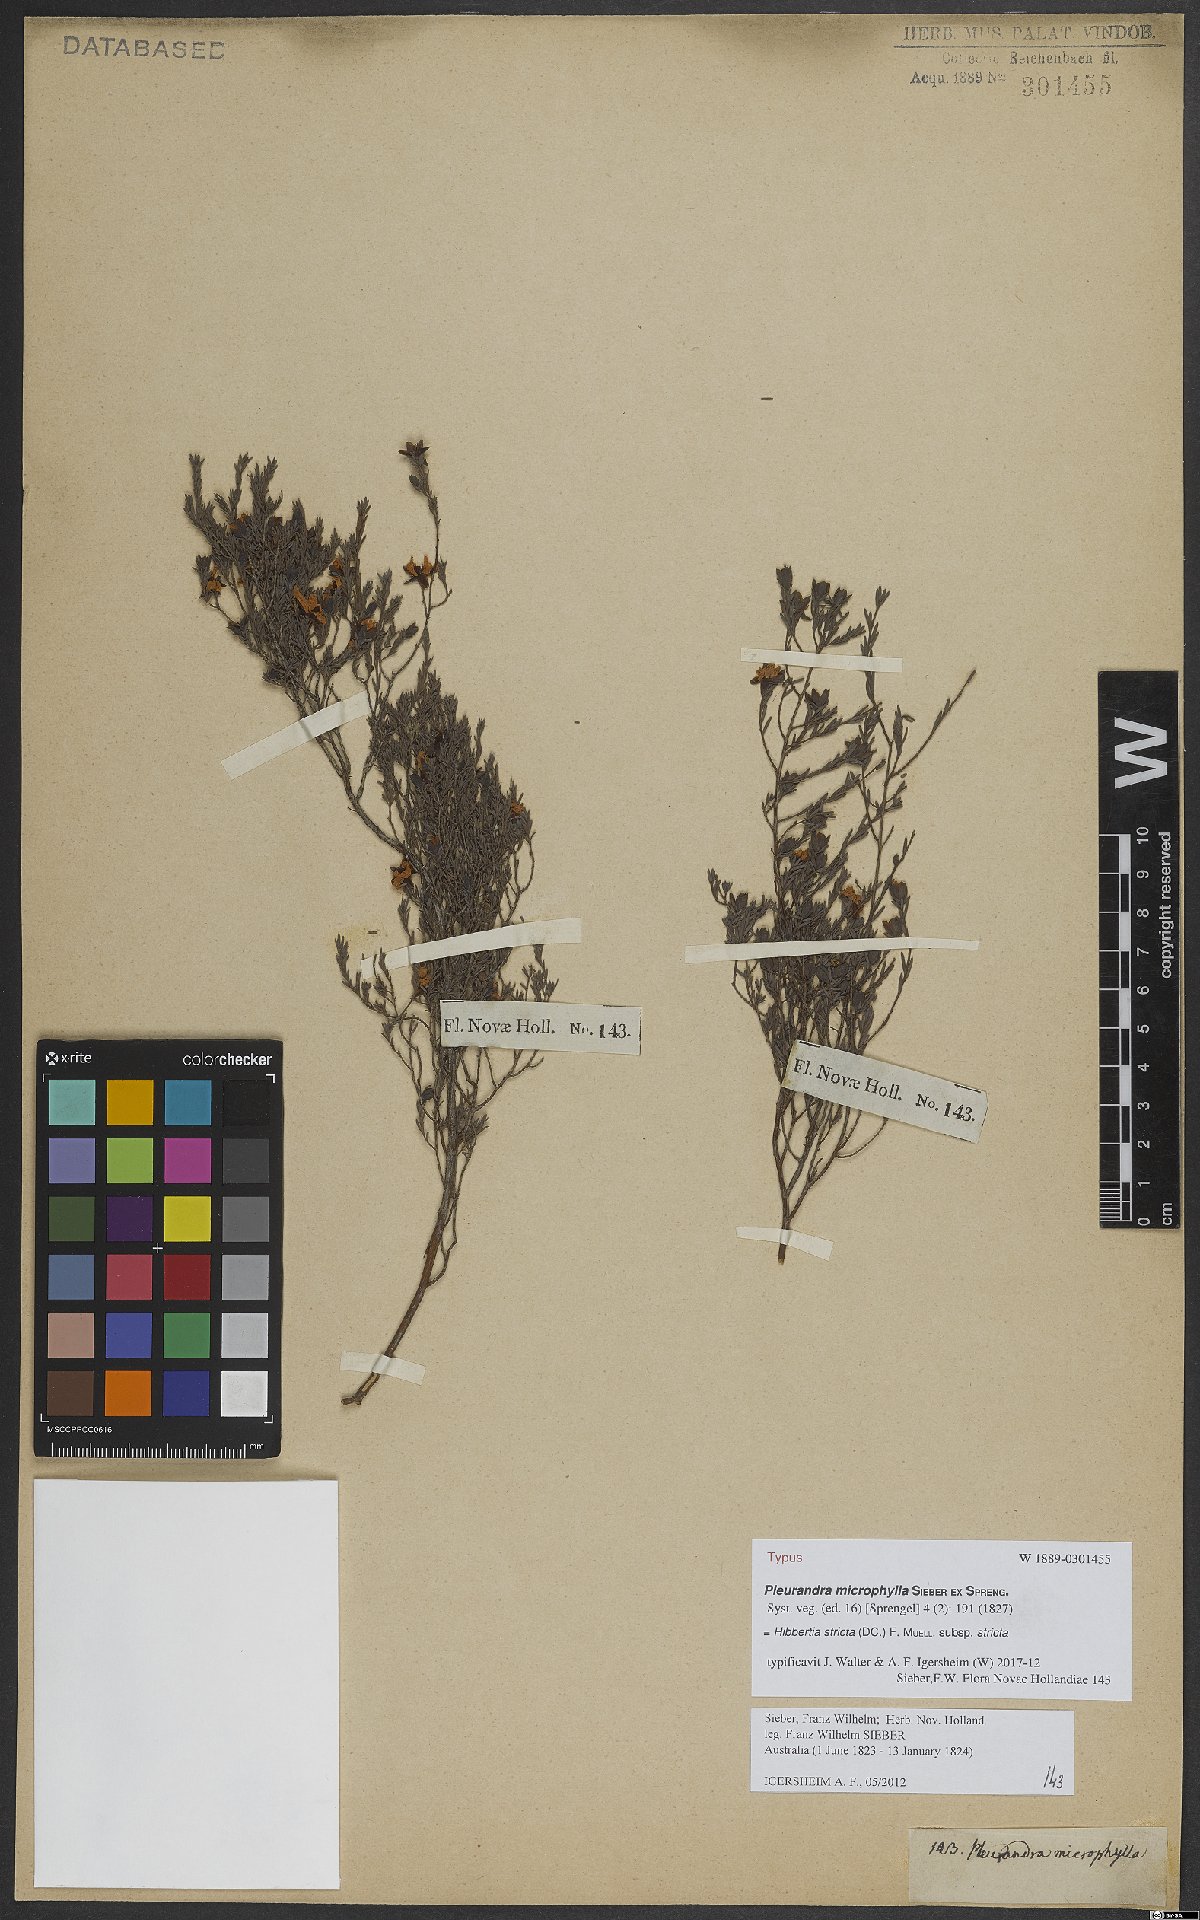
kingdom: Plantae
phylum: Tracheophyta
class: Magnoliopsida
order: Dilleniales
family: Dilleniaceae
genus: Hibbertia
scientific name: Hibbertia stricta
